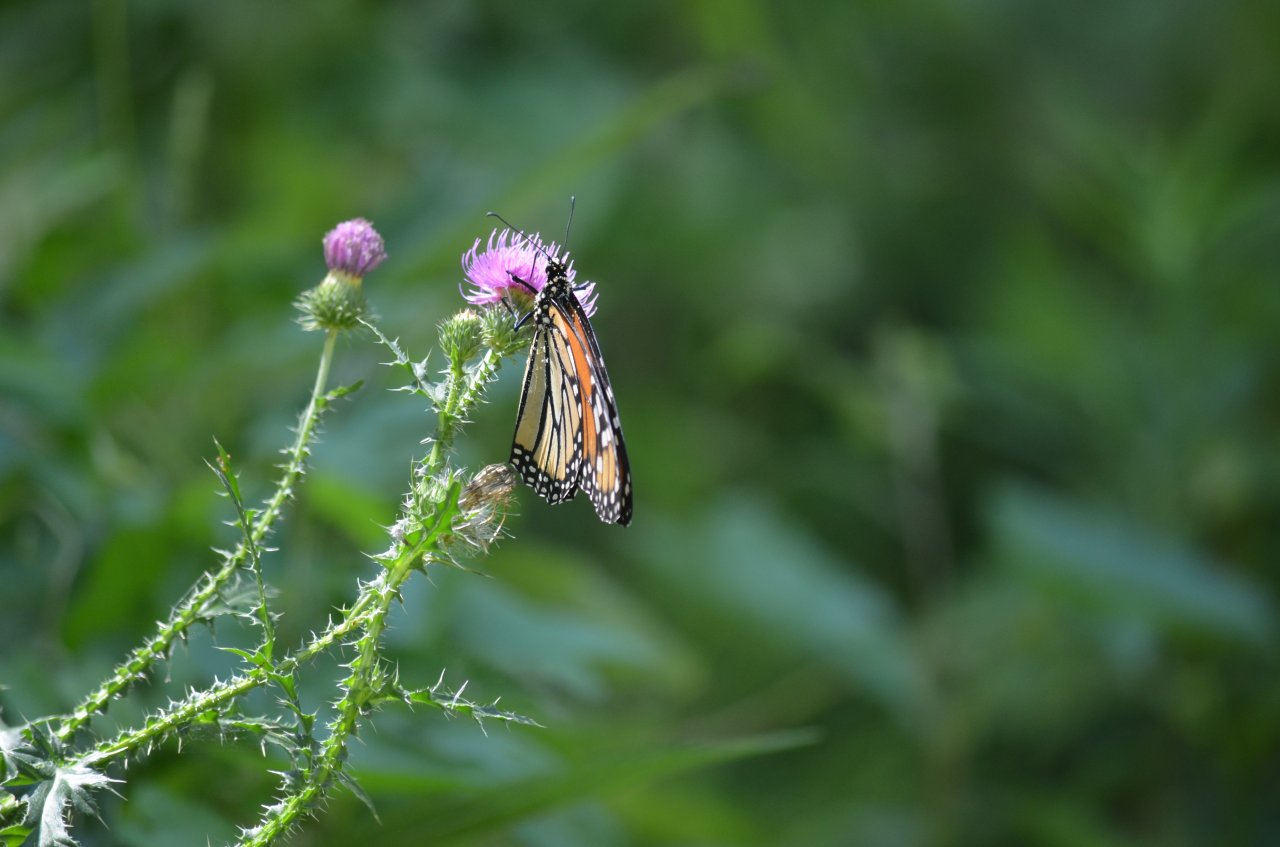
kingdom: Animalia
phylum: Arthropoda
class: Insecta
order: Lepidoptera
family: Nymphalidae
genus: Danaus
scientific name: Danaus plexippus
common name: Monarch
